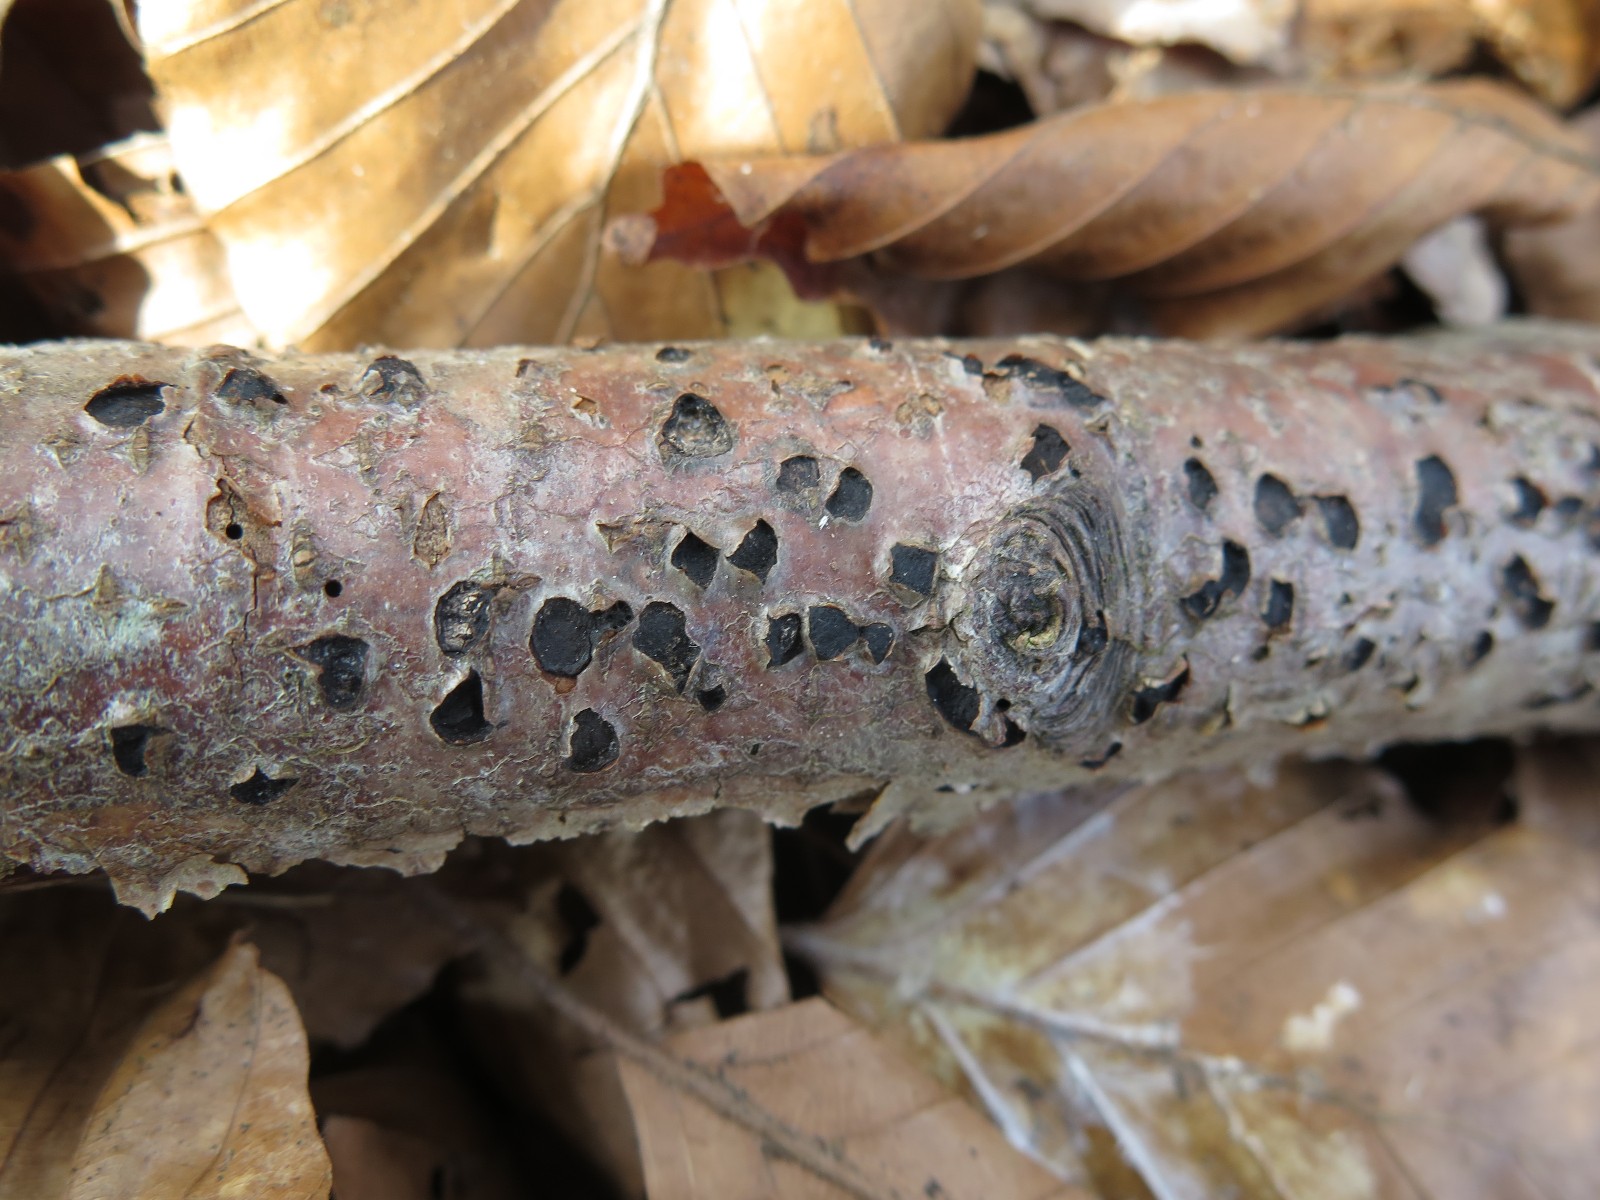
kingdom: Fungi
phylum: Ascomycota
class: Sordariomycetes
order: Xylariales
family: Diatrypaceae
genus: Diatrype
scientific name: Diatrype disciformis
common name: kant-kulskorpe
